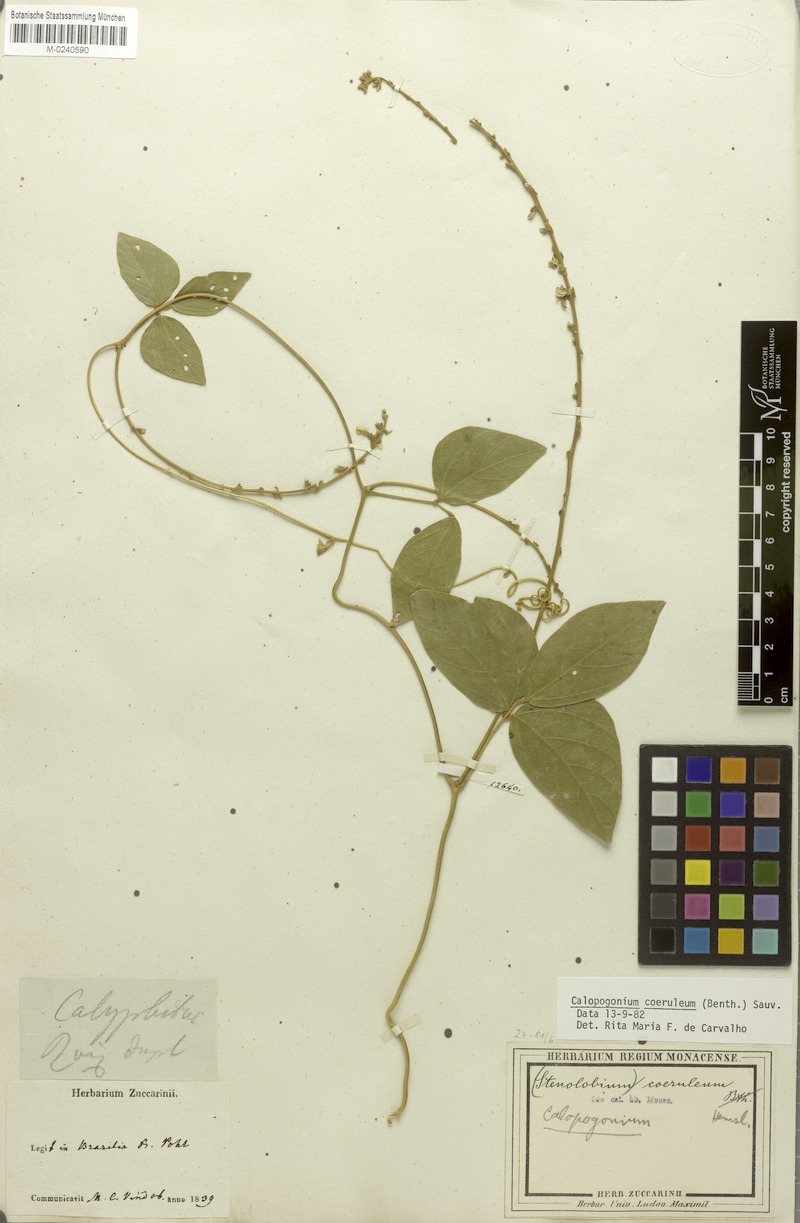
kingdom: Plantae
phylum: Tracheophyta
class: Magnoliopsida
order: Fabales
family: Fabaceae
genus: Calopogonium
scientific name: Calopogonium caeruleum
